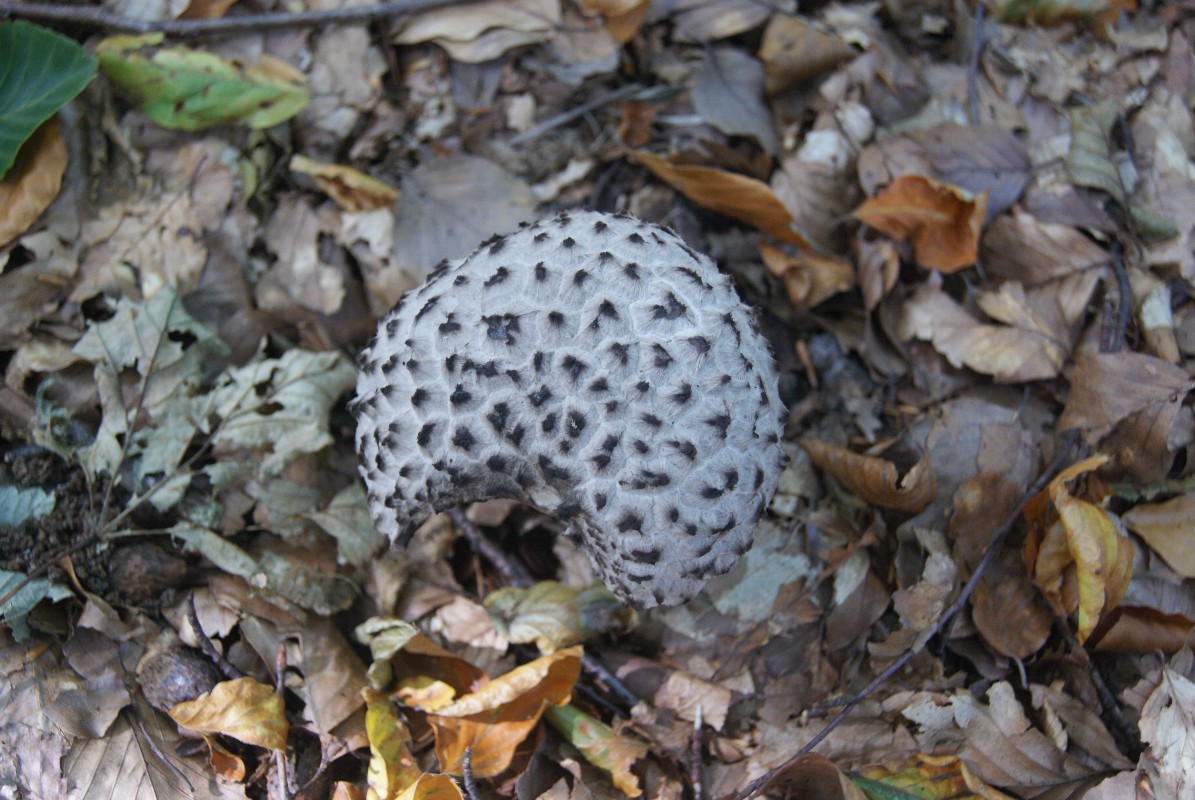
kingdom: Fungi
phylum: Basidiomycota
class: Agaricomycetes
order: Boletales
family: Boletaceae
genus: Strobilomyces
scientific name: Strobilomyces strobilaceus
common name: koglerørhat
